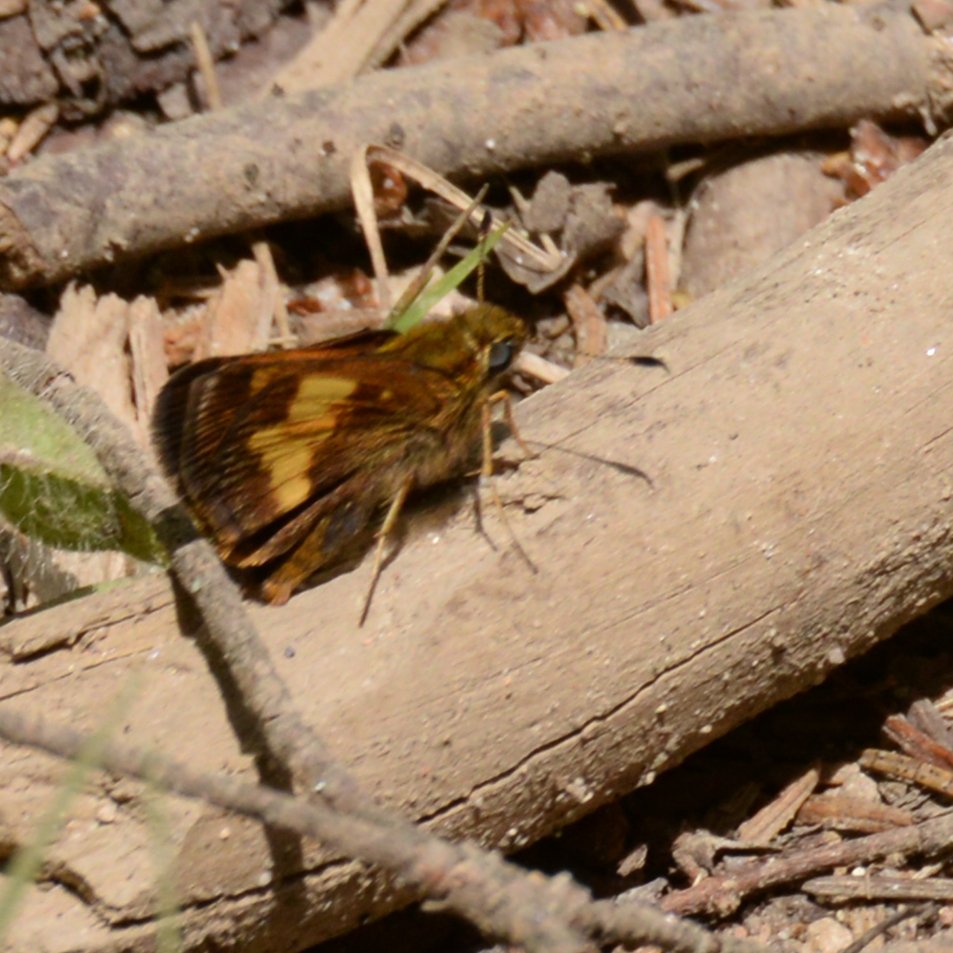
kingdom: Animalia
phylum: Arthropoda
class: Insecta
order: Lepidoptera
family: Hesperiidae
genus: Lon
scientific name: Lon hobomok
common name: Hobomok Skipper
